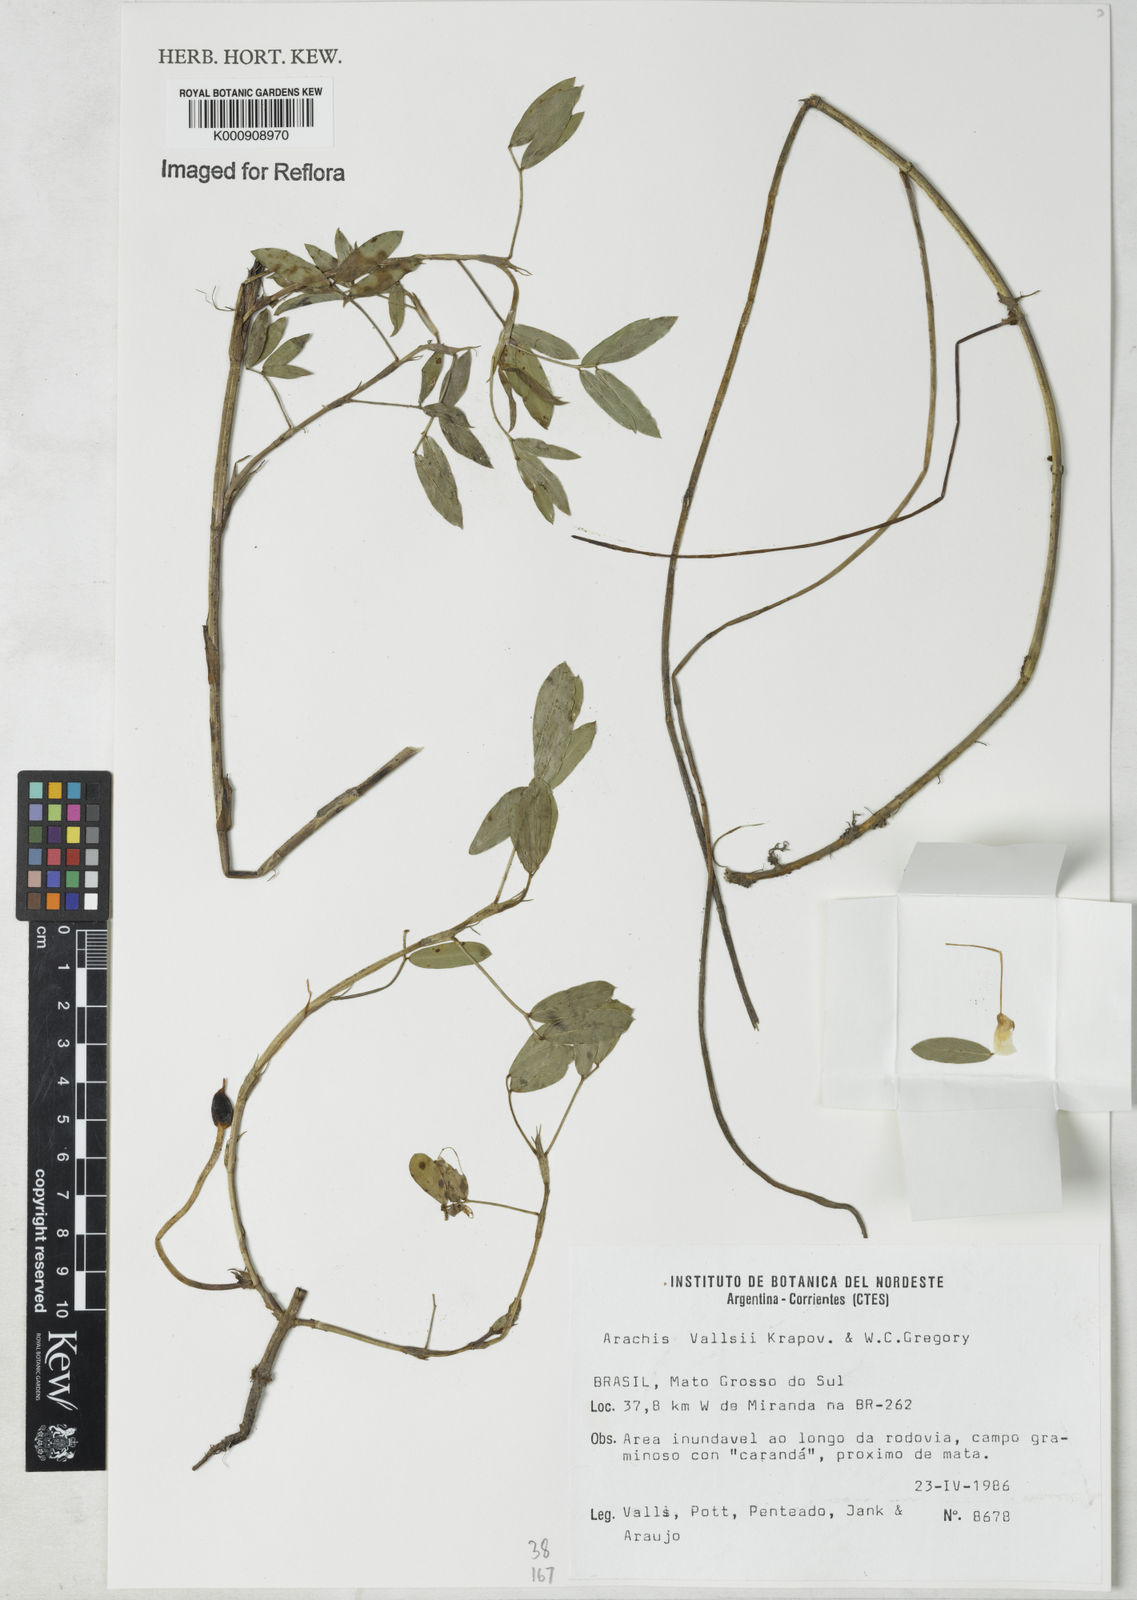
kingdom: Plantae
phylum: Tracheophyta
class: Magnoliopsida
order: Fabales
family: Fabaceae
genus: Arachis
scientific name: Arachis vallsii
